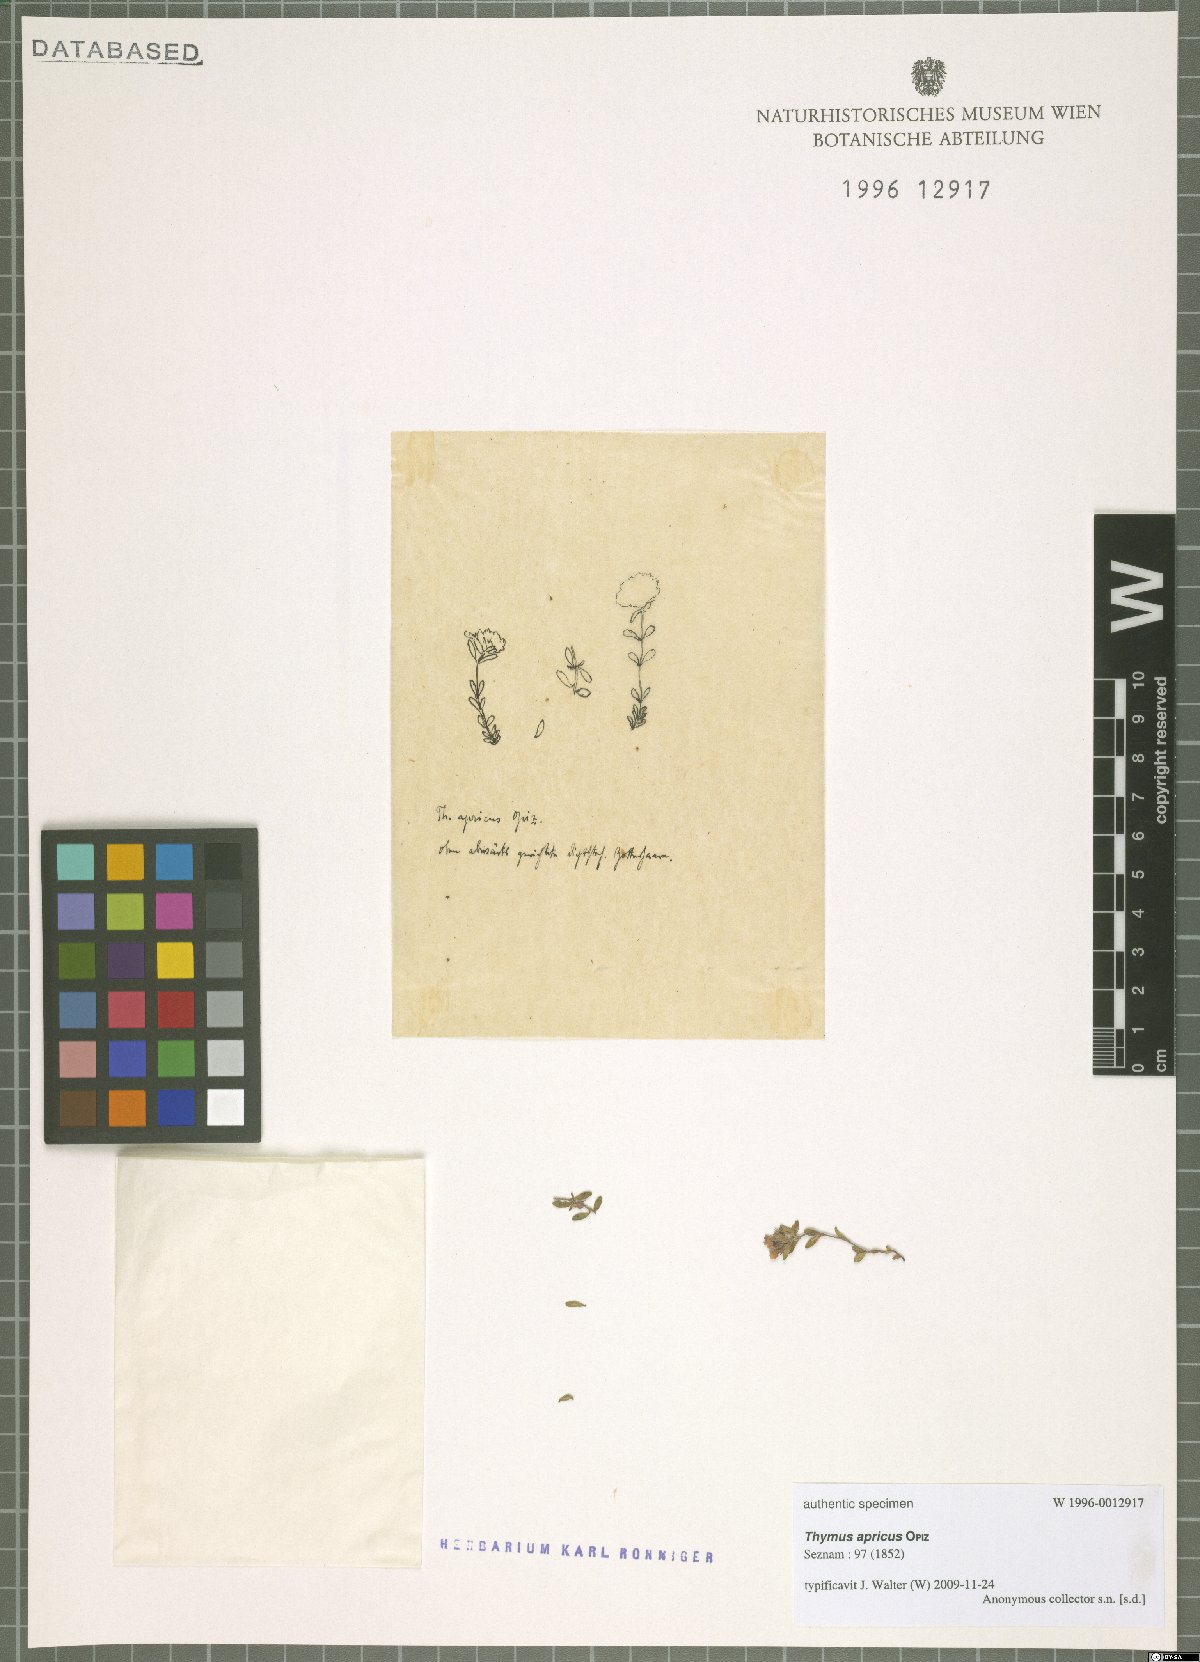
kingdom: Plantae
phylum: Tracheophyta
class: Magnoliopsida
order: Lamiales
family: Lamiaceae
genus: Thymus
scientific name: Thymus serpyllum
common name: Breckland thyme
